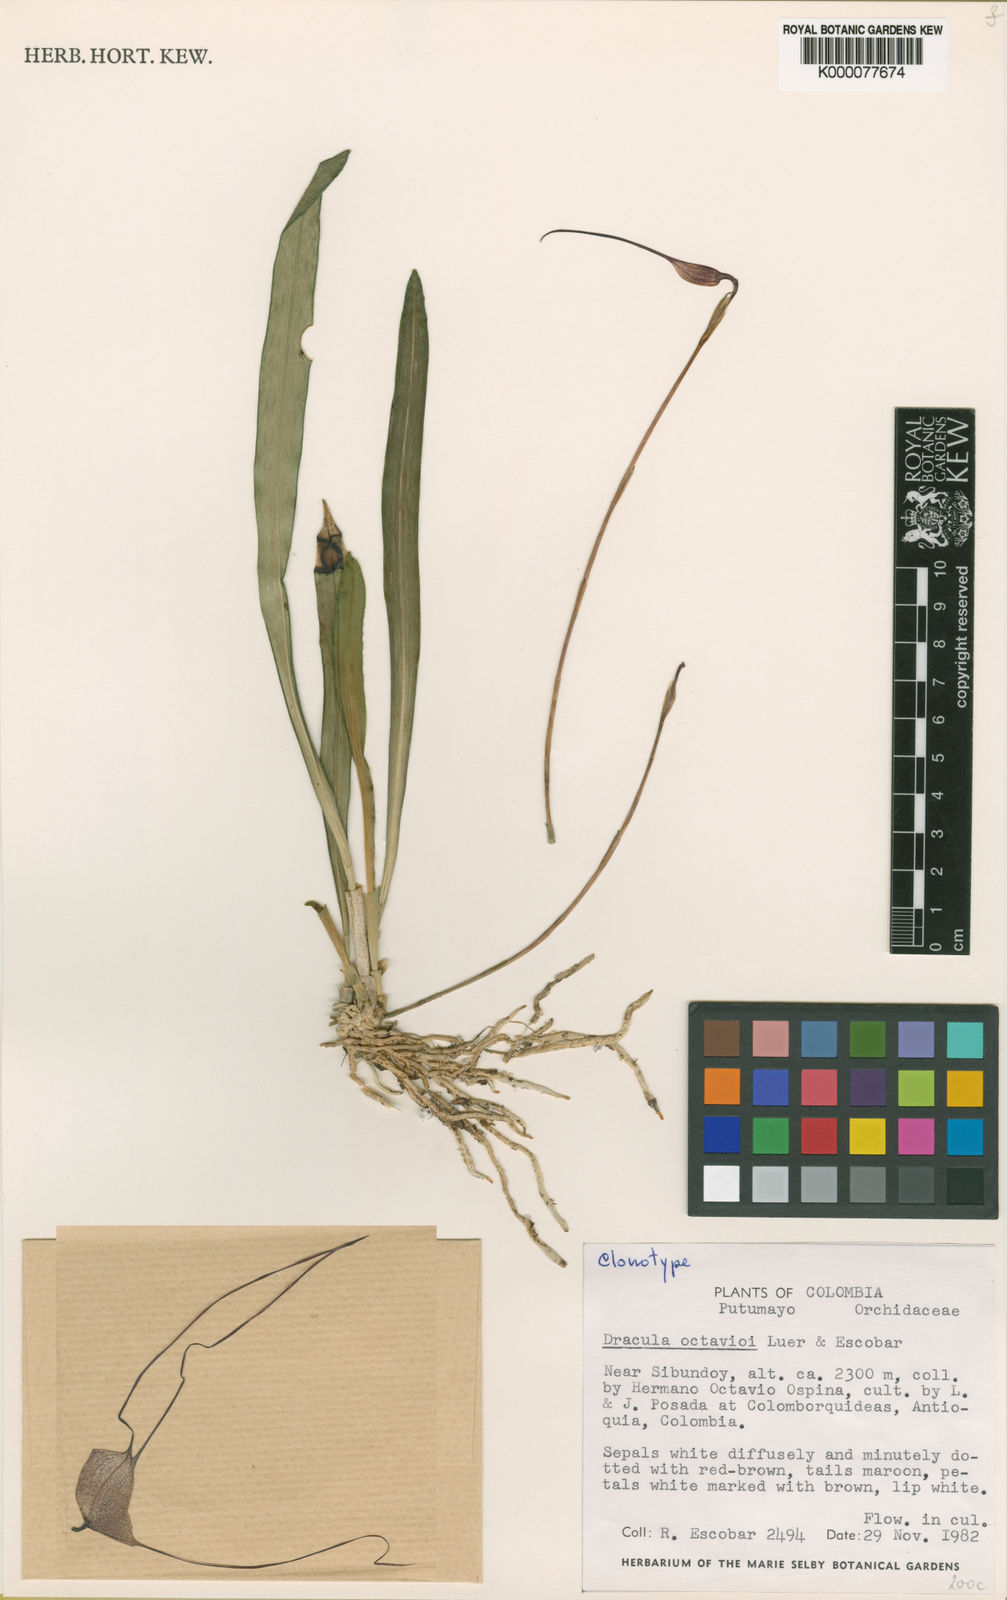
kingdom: Plantae
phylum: Tracheophyta
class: Liliopsida
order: Asparagales
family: Orchidaceae
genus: Dracula
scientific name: Dracula octavioi
